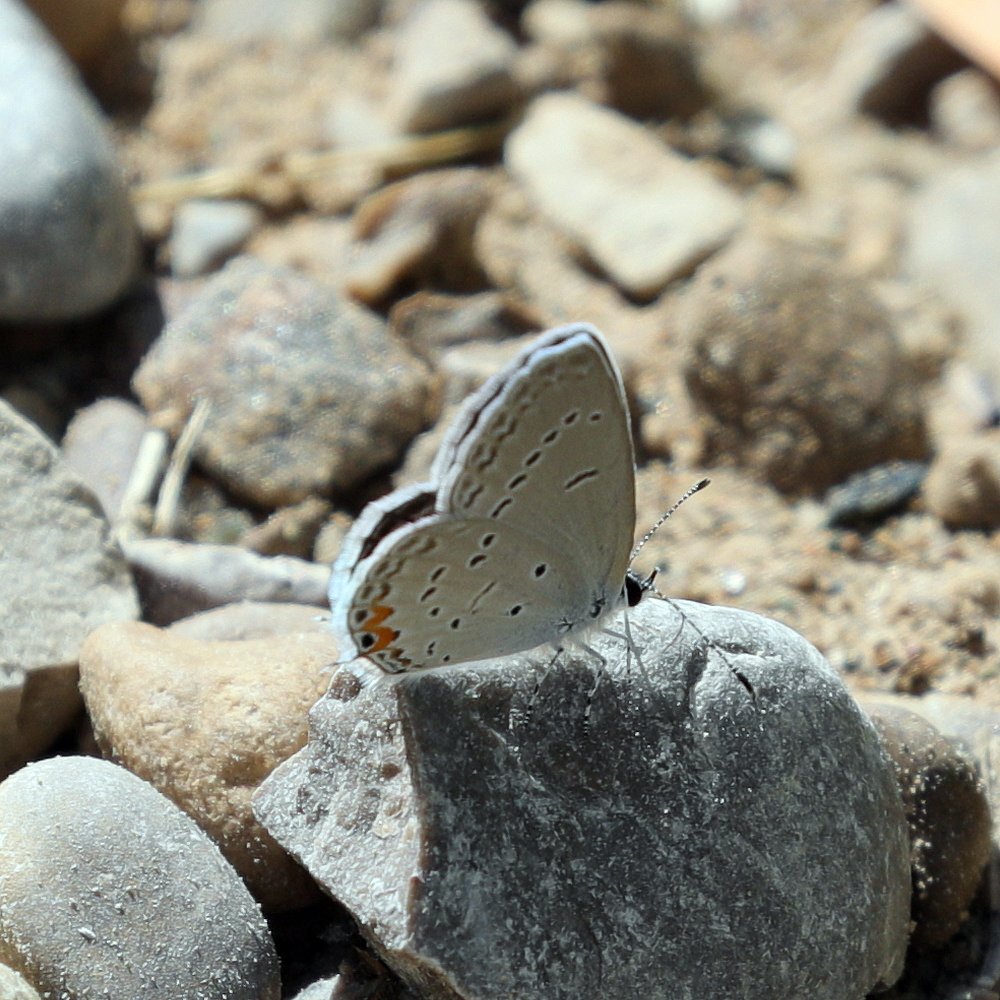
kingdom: Animalia
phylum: Arthropoda
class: Insecta
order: Lepidoptera
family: Lycaenidae
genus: Elkalyce
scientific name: Elkalyce comyntas
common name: Eastern Tailed-Blue
